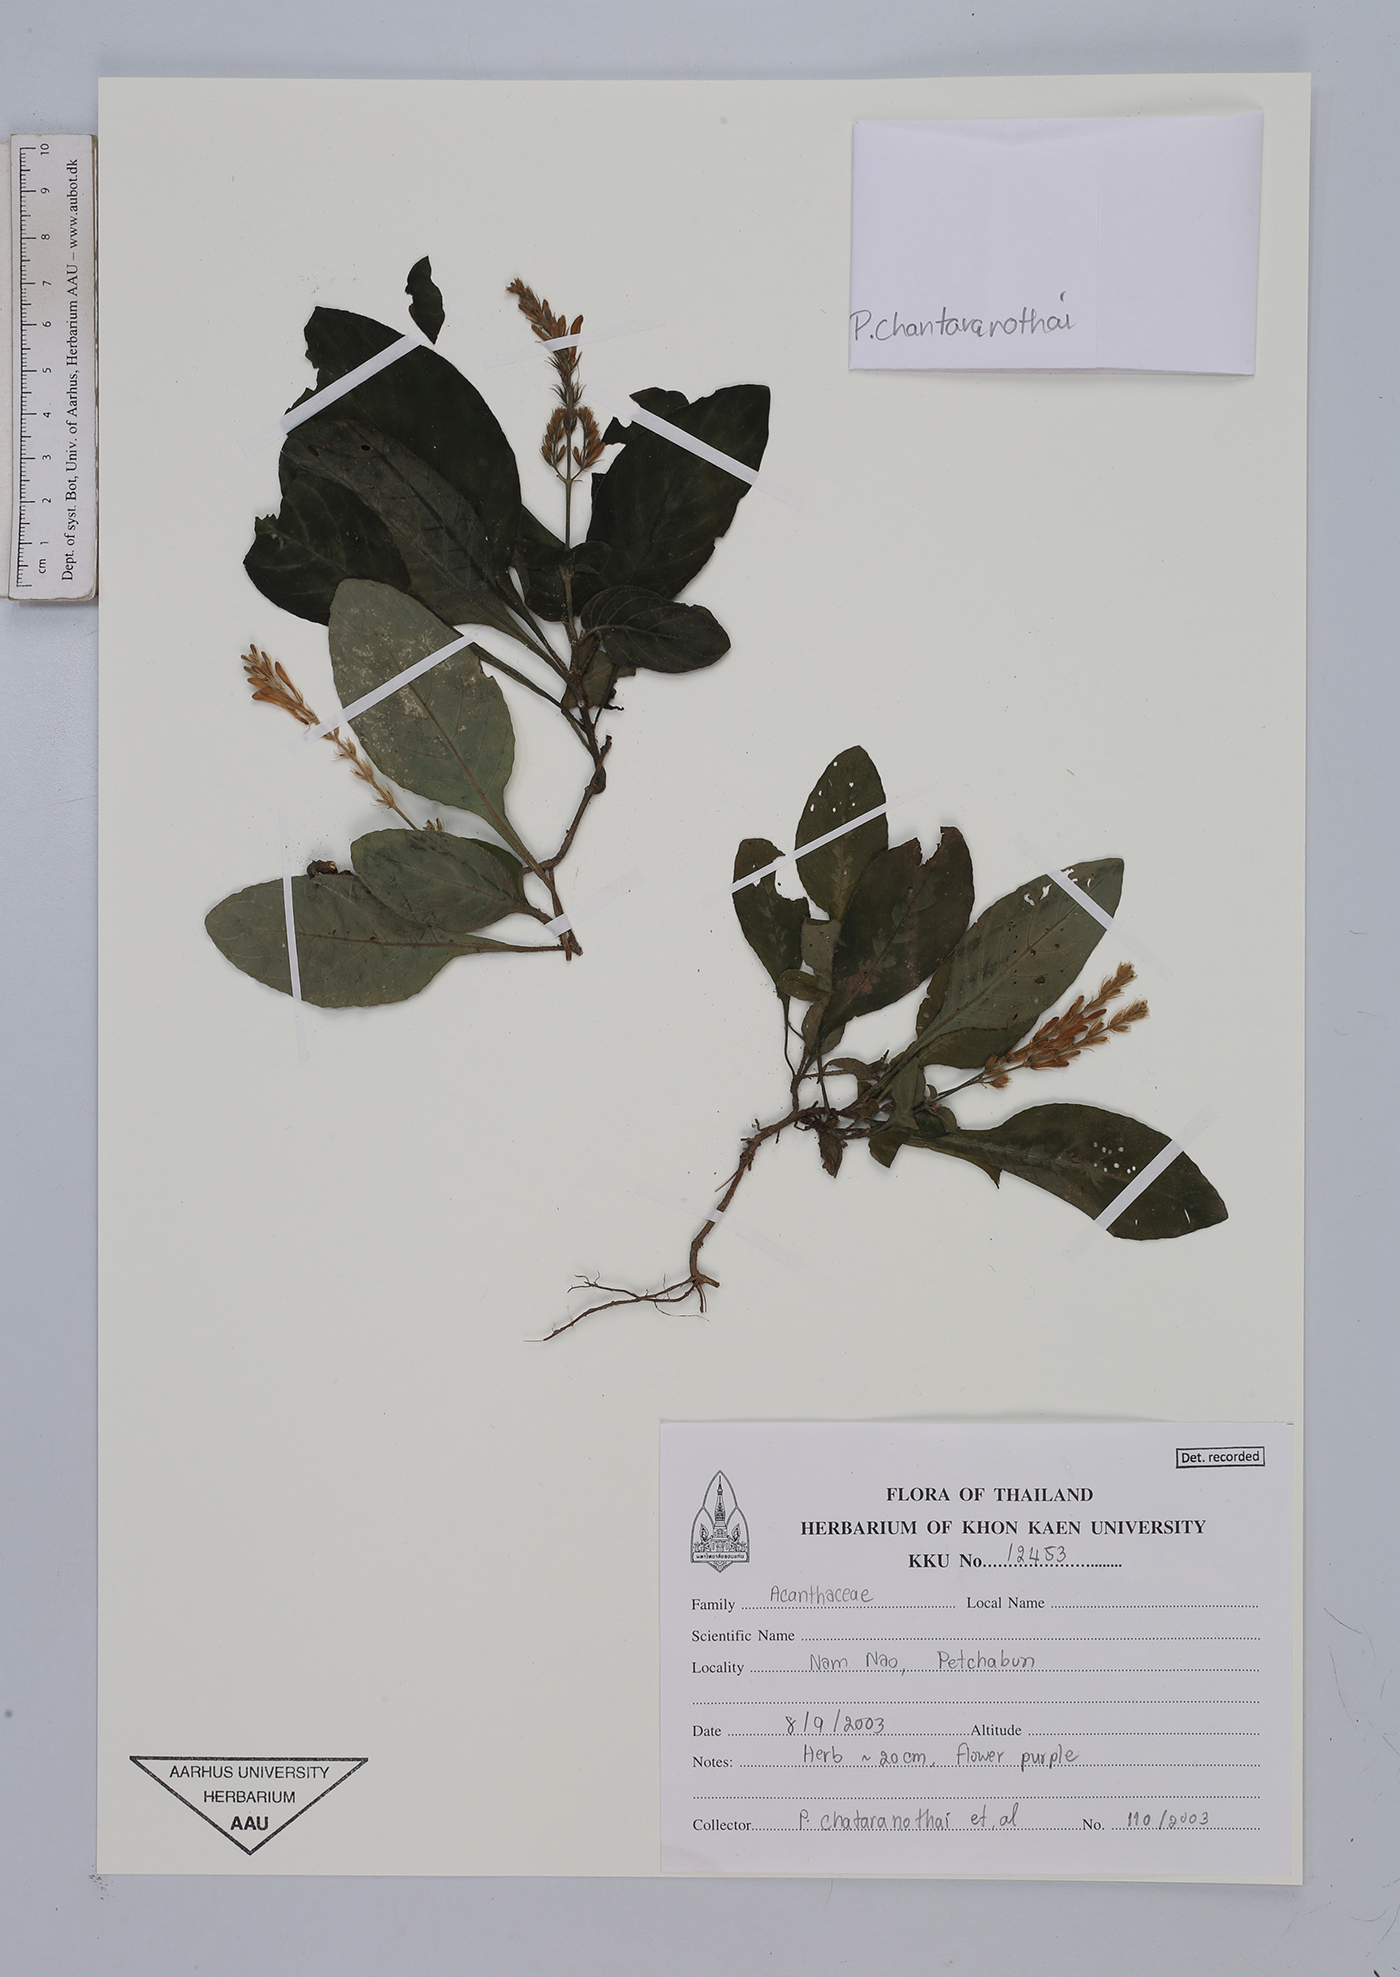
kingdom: Plantae
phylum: Tracheophyta
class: Magnoliopsida
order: Lamiales
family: Acanthaceae
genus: Gymnostachyum
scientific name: Gymnostachyum signatum
